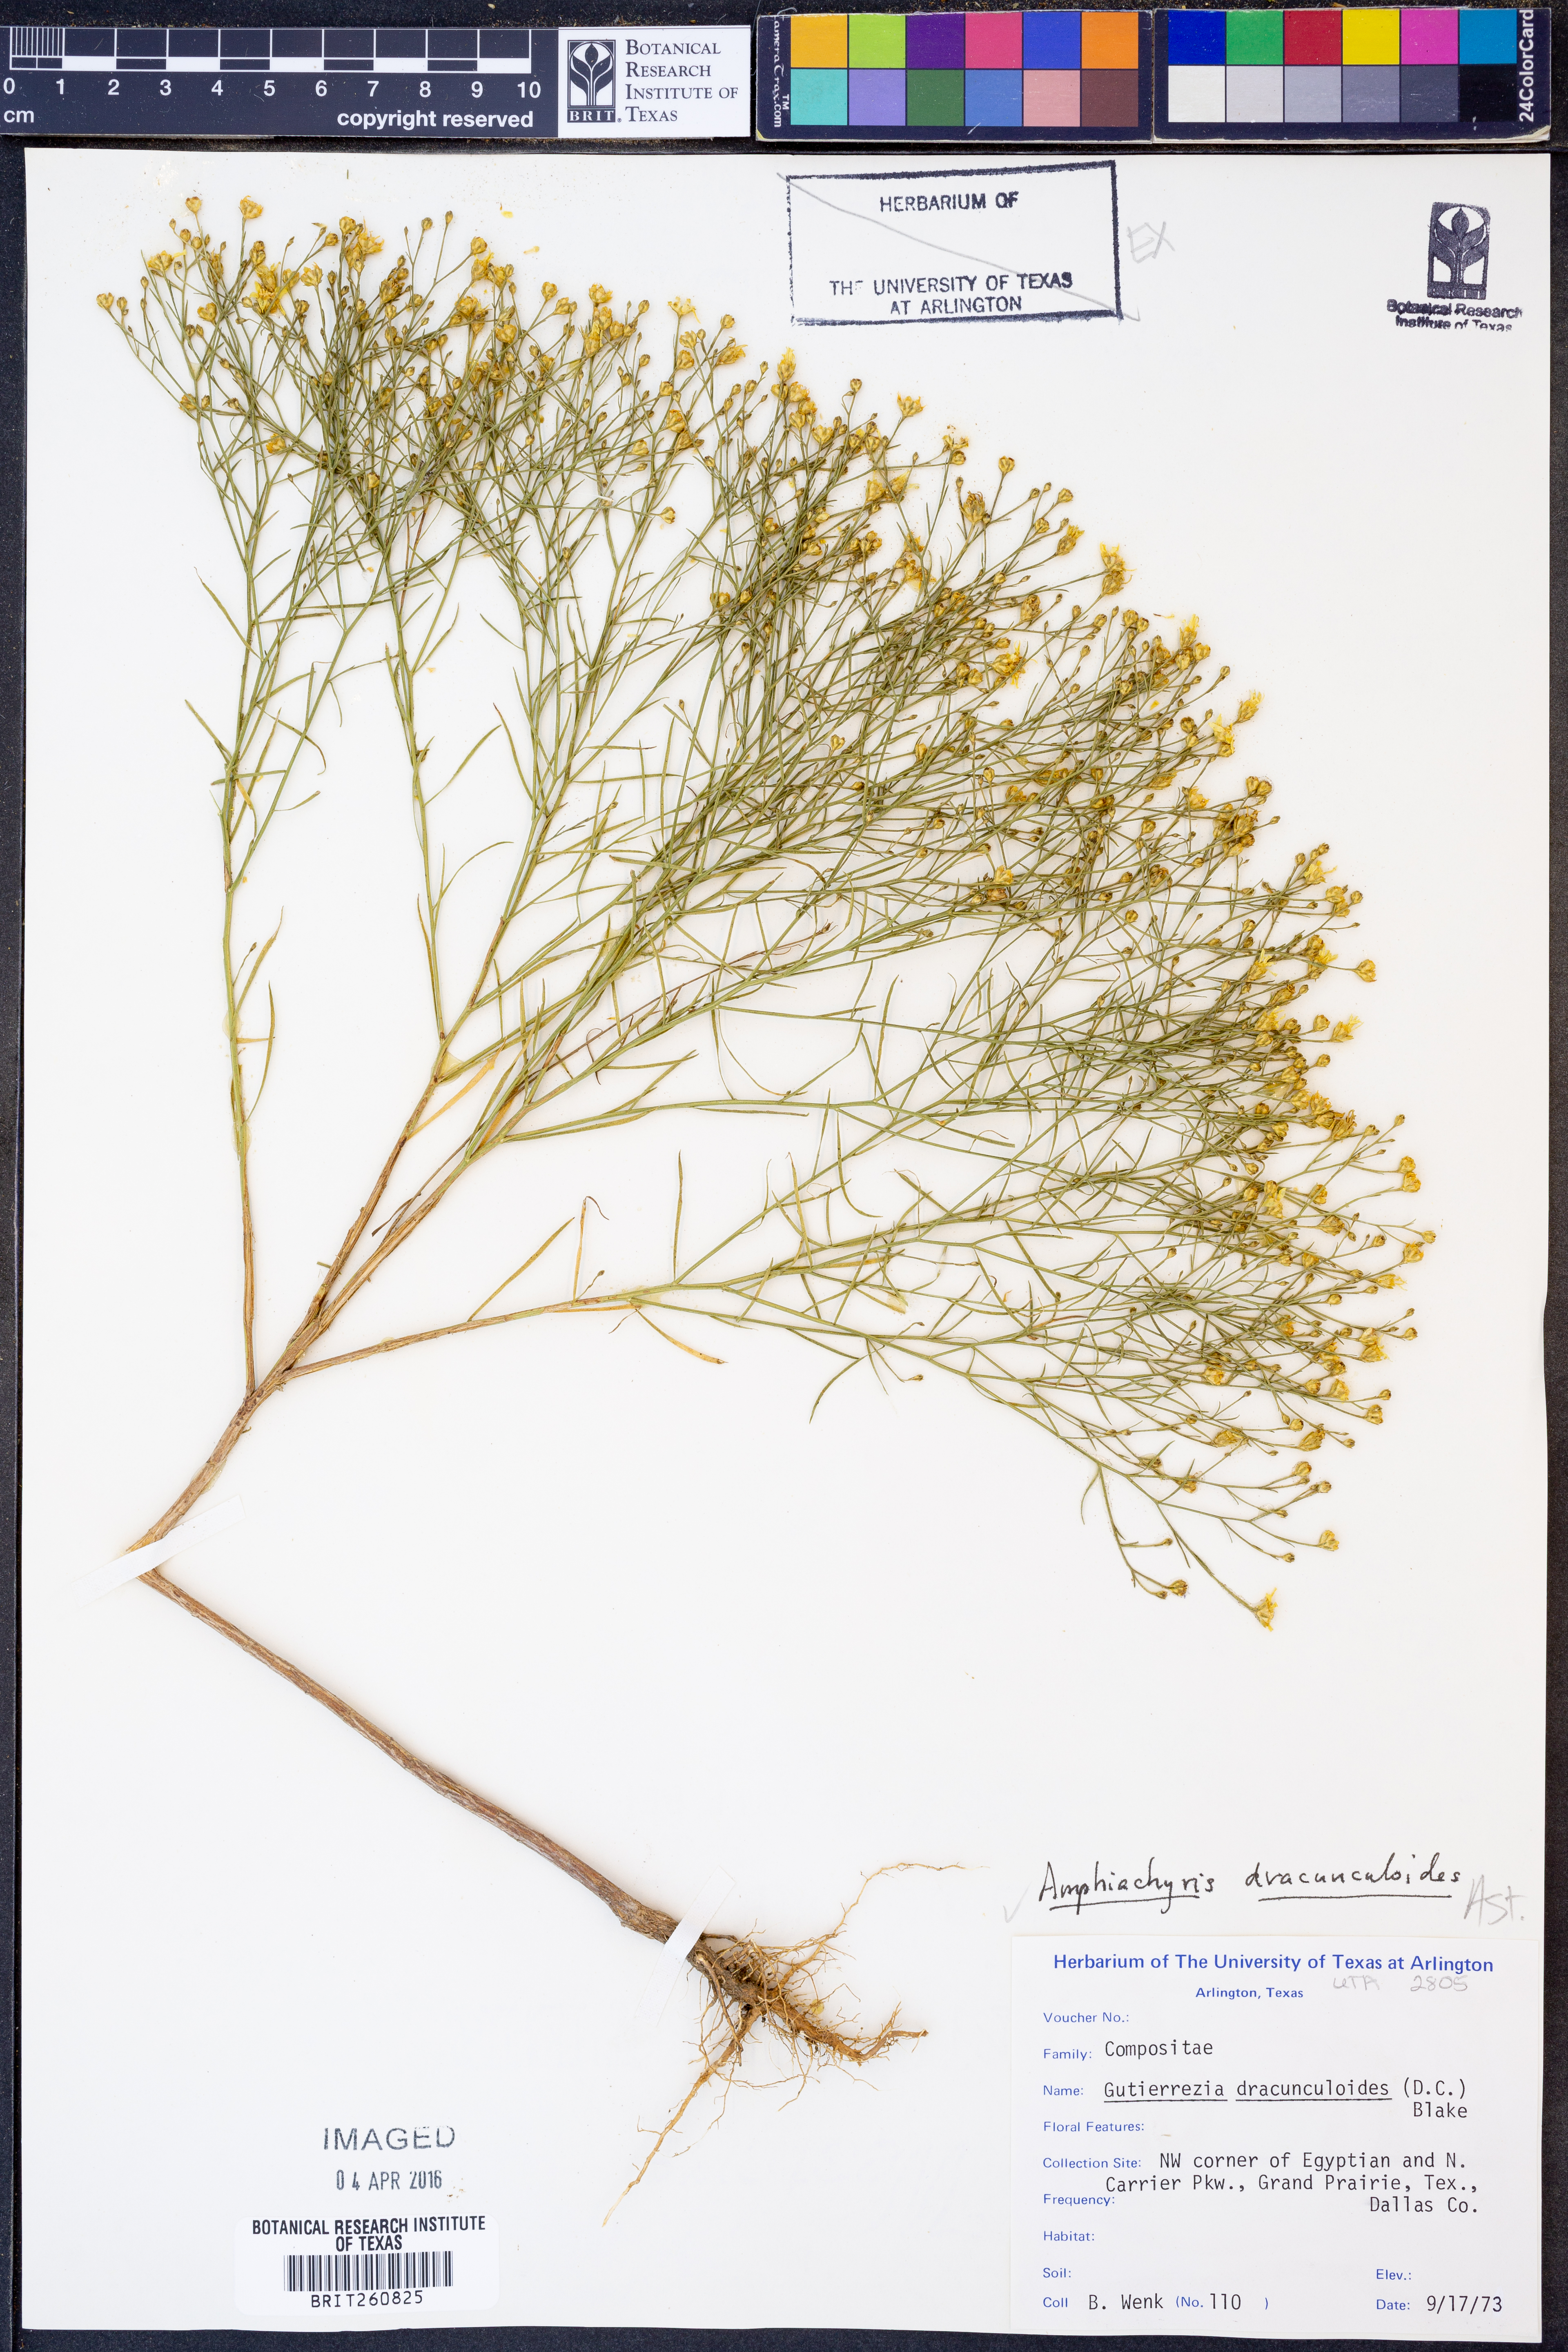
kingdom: Plantae
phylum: Tracheophyta
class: Magnoliopsida
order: Asterales
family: Asteraceae
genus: Amphiachyris
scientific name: Amphiachyris dracunculoides
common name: Broomweed
